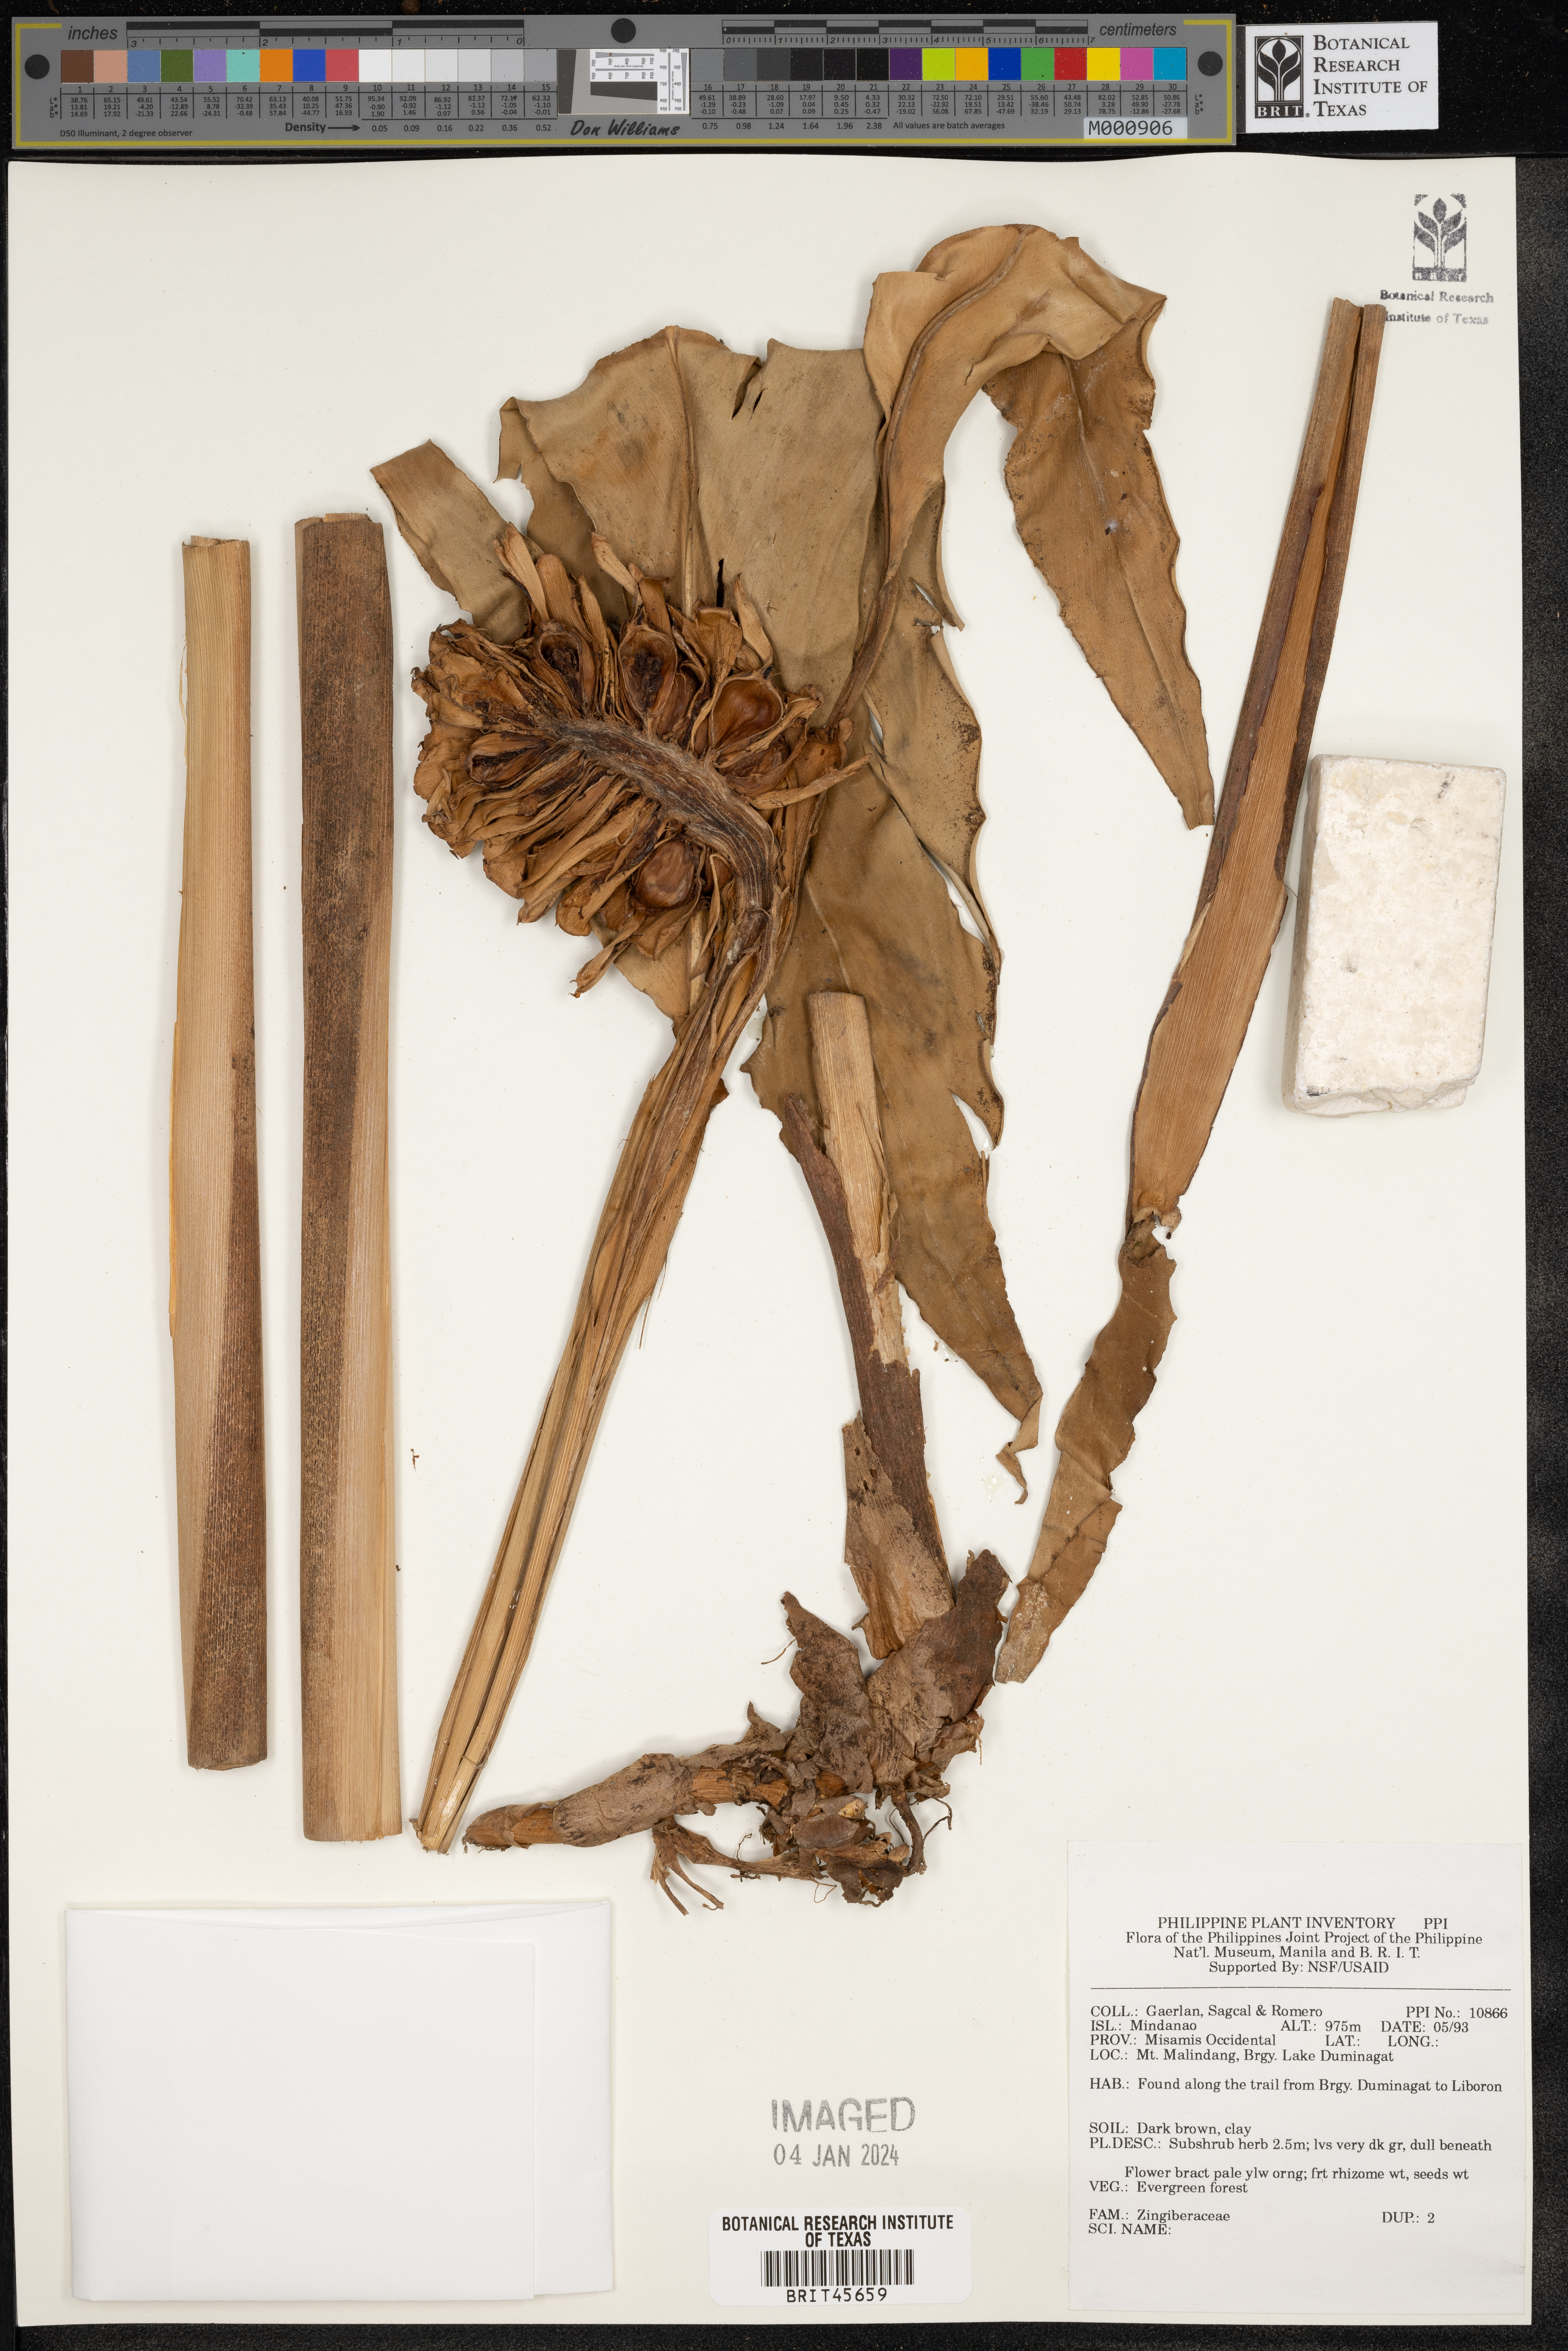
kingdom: Plantae
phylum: Tracheophyta
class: Liliopsida
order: Zingiberales
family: Zingiberaceae
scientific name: Zingiberaceae
